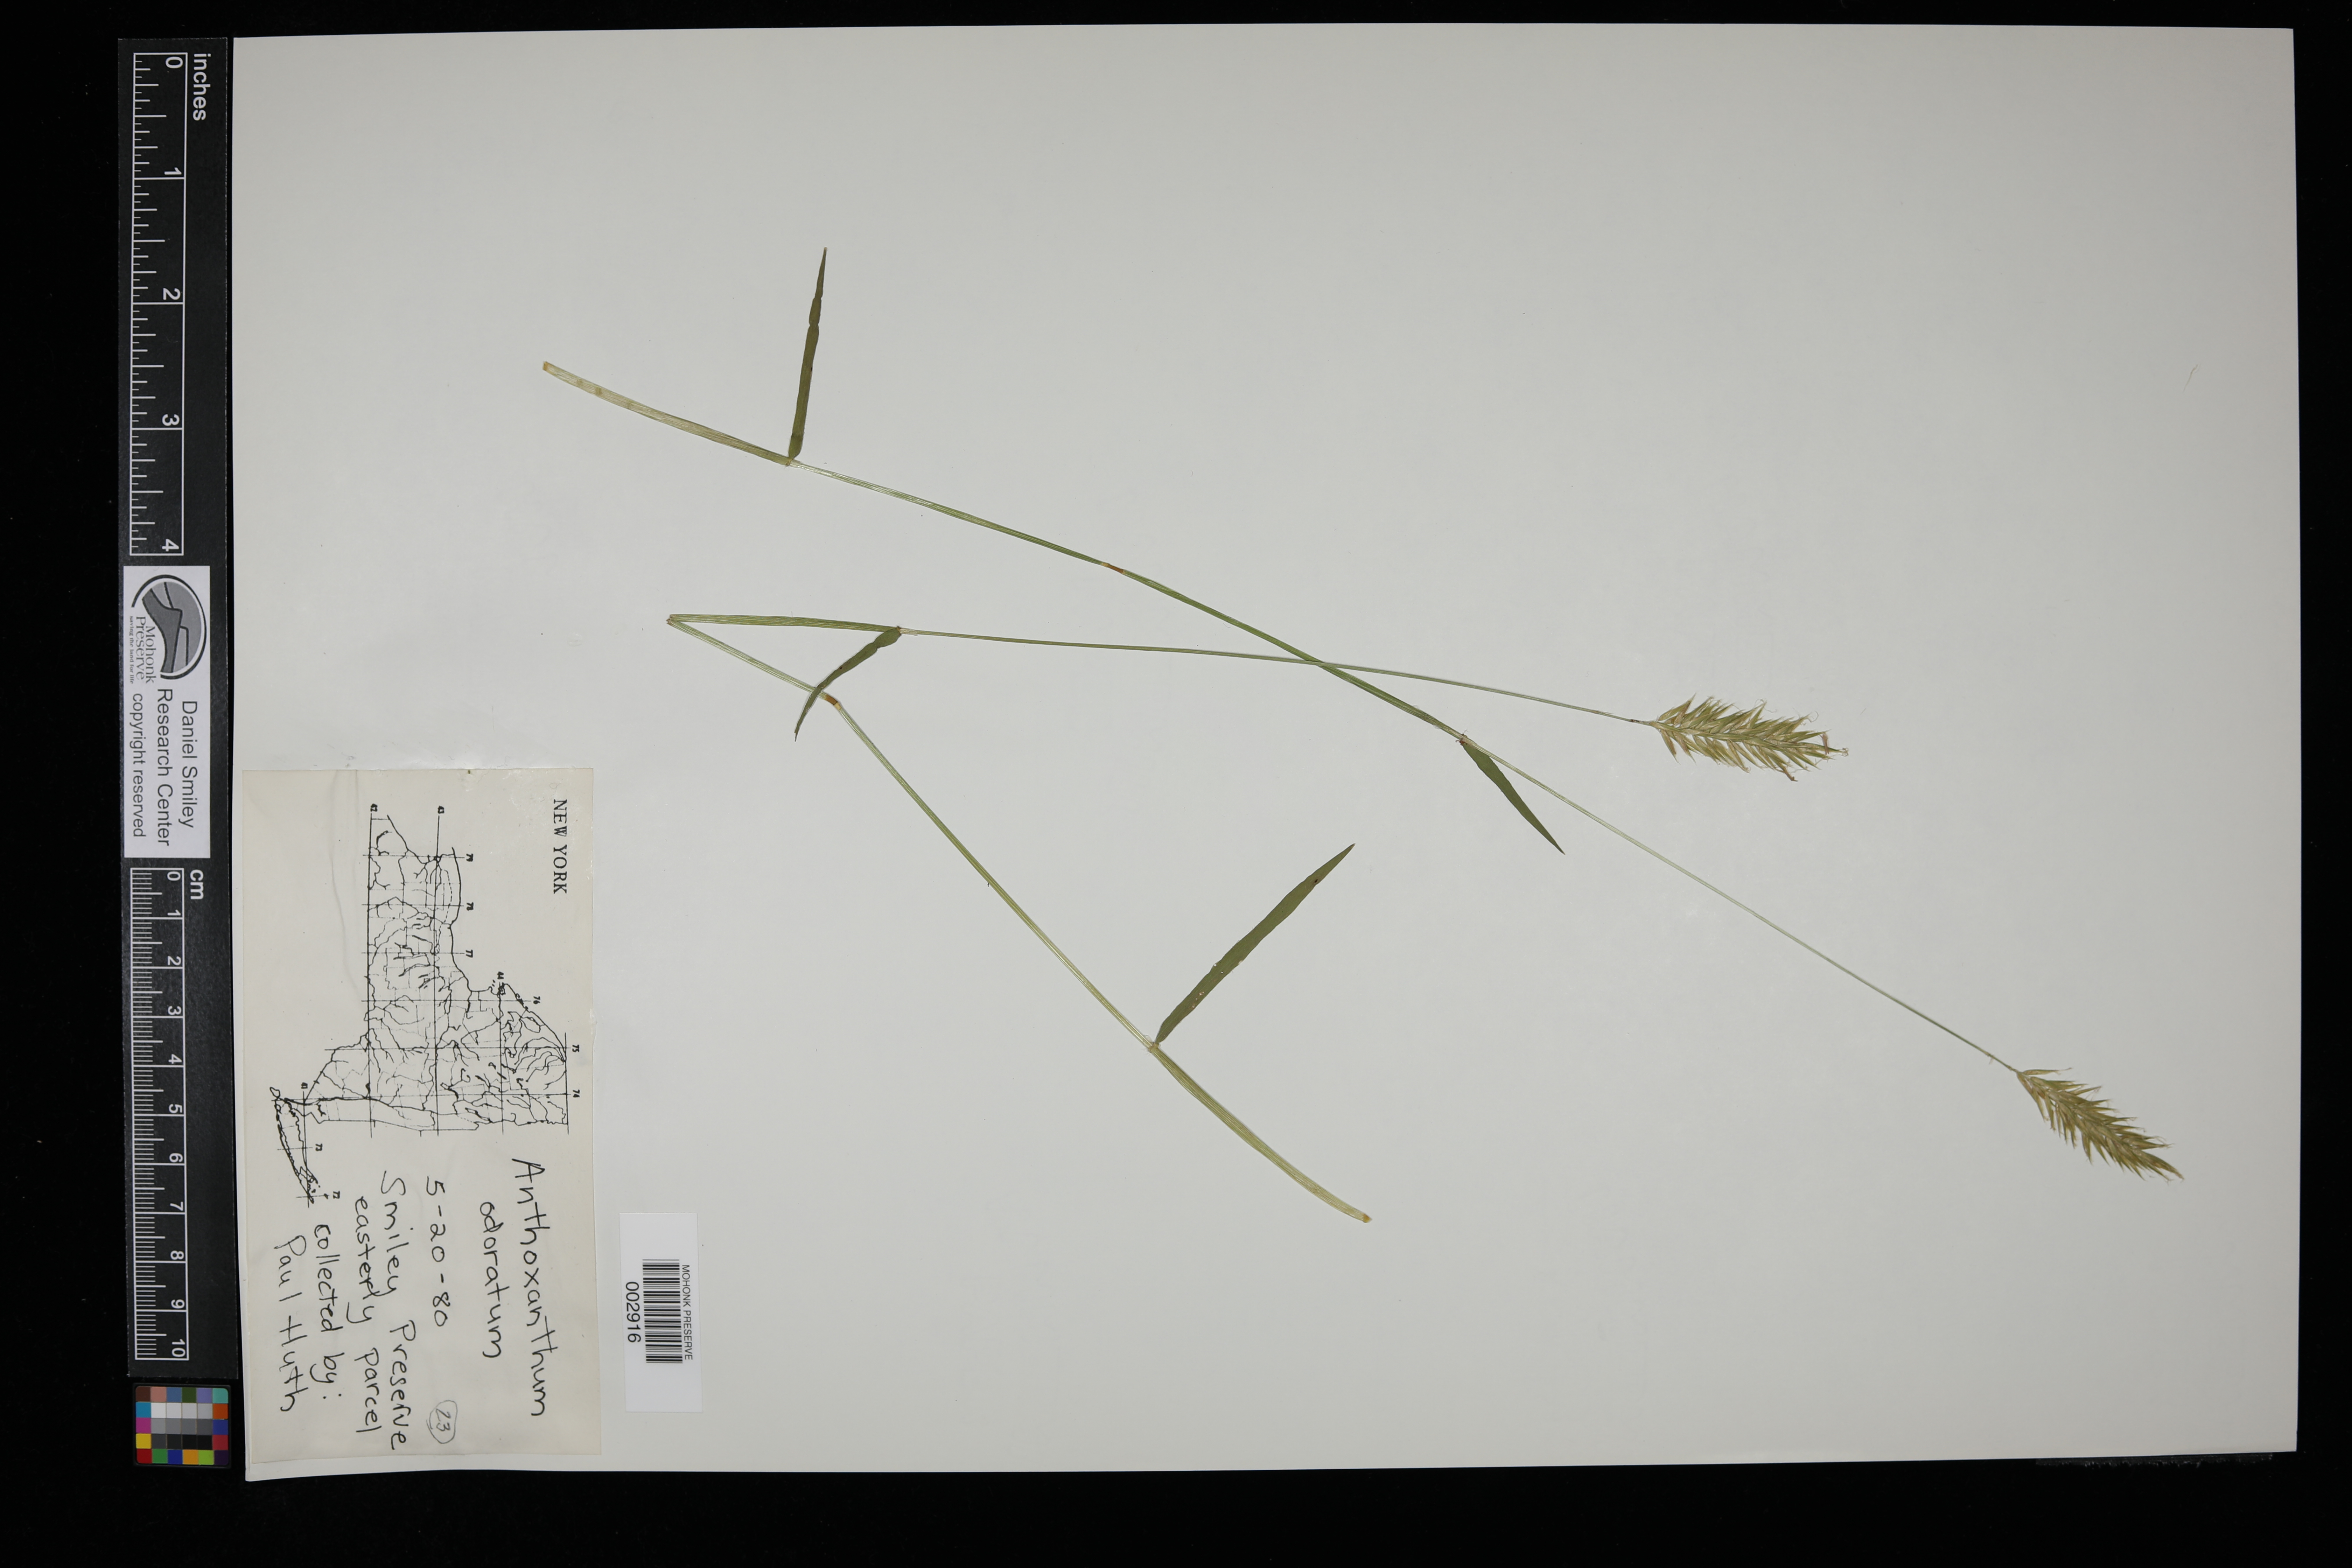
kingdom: Plantae
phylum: Tracheophyta
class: Liliopsida
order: Poales
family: Poaceae
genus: Anthoxanthum
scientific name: Anthoxanthum odoratum
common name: Sweet vernalgrass
